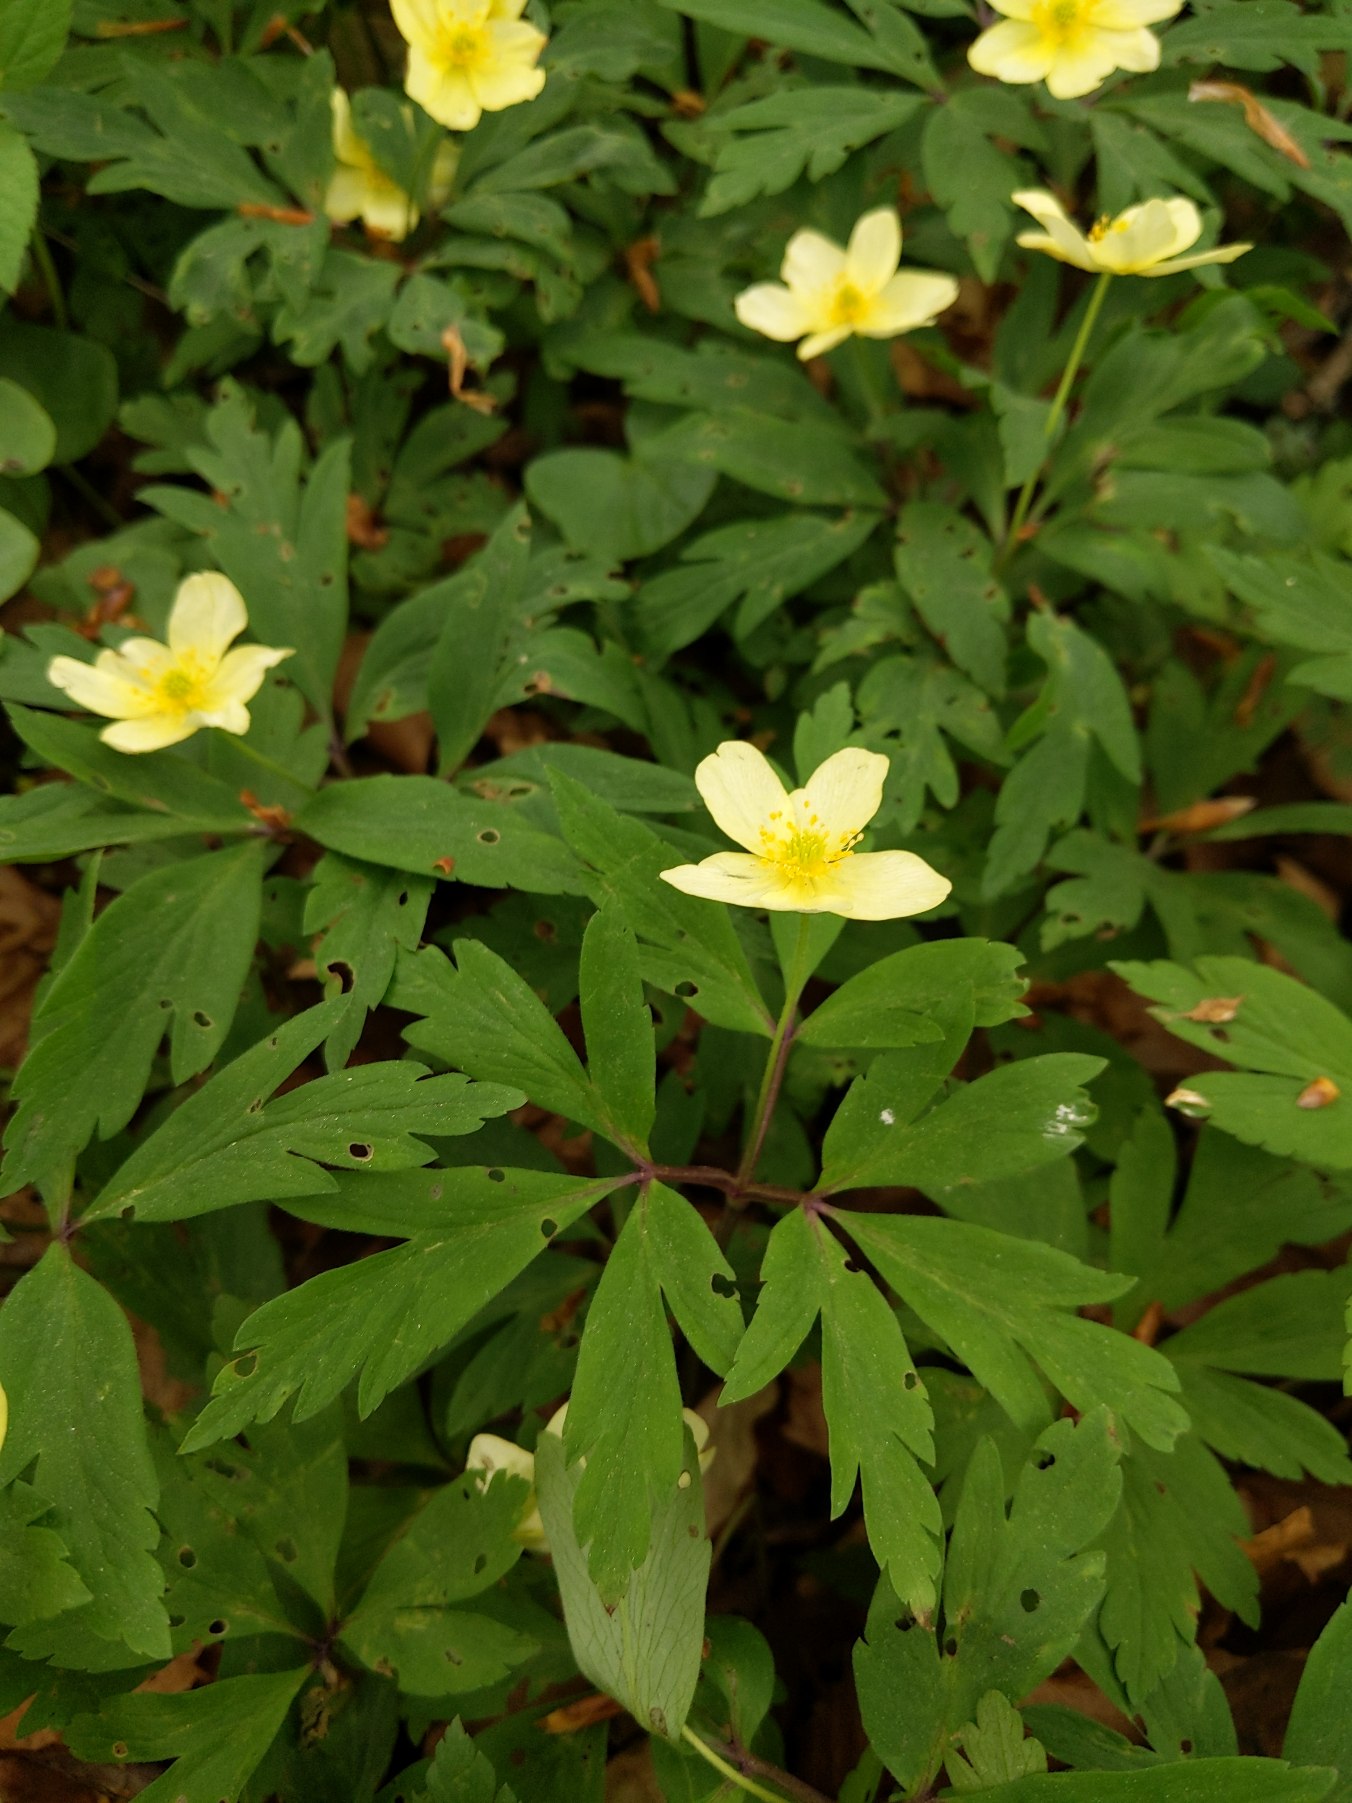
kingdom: Plantae
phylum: Tracheophyta
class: Magnoliopsida
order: Ranunculales
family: Ranunculaceae
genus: Anemone
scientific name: Anemone
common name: Svovlgul anemone
